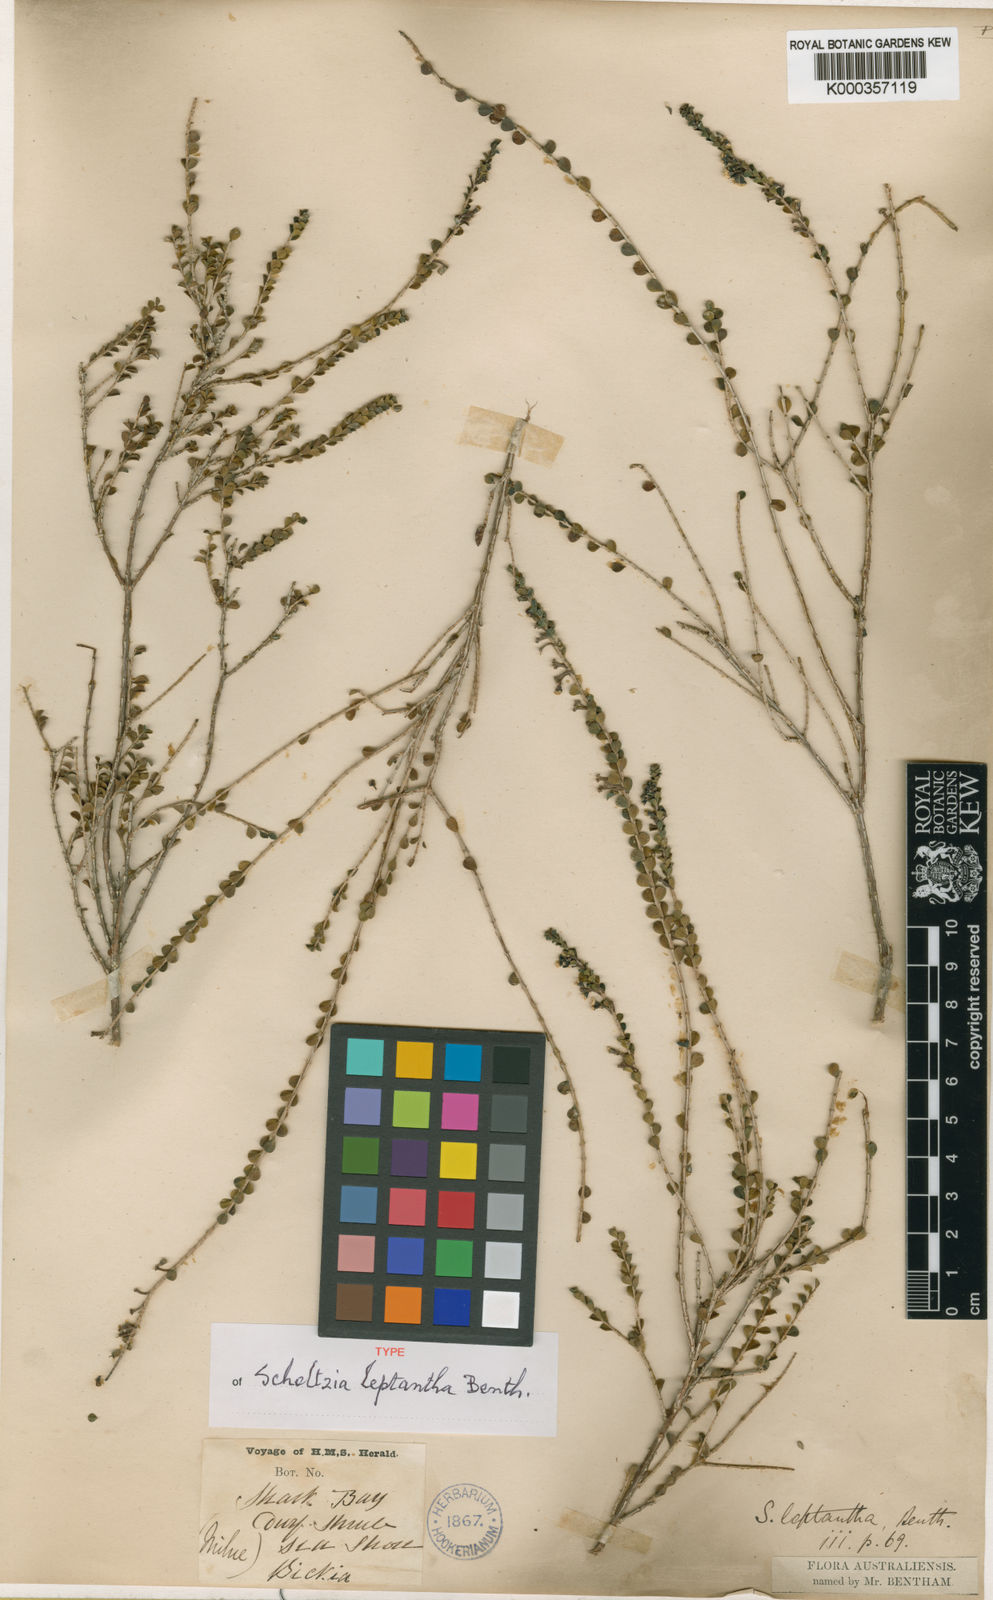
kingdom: Plantae
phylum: Tracheophyta
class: Magnoliopsida
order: Myrtales
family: Myrtaceae
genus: Scholtzia
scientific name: Scholtzia obovata
